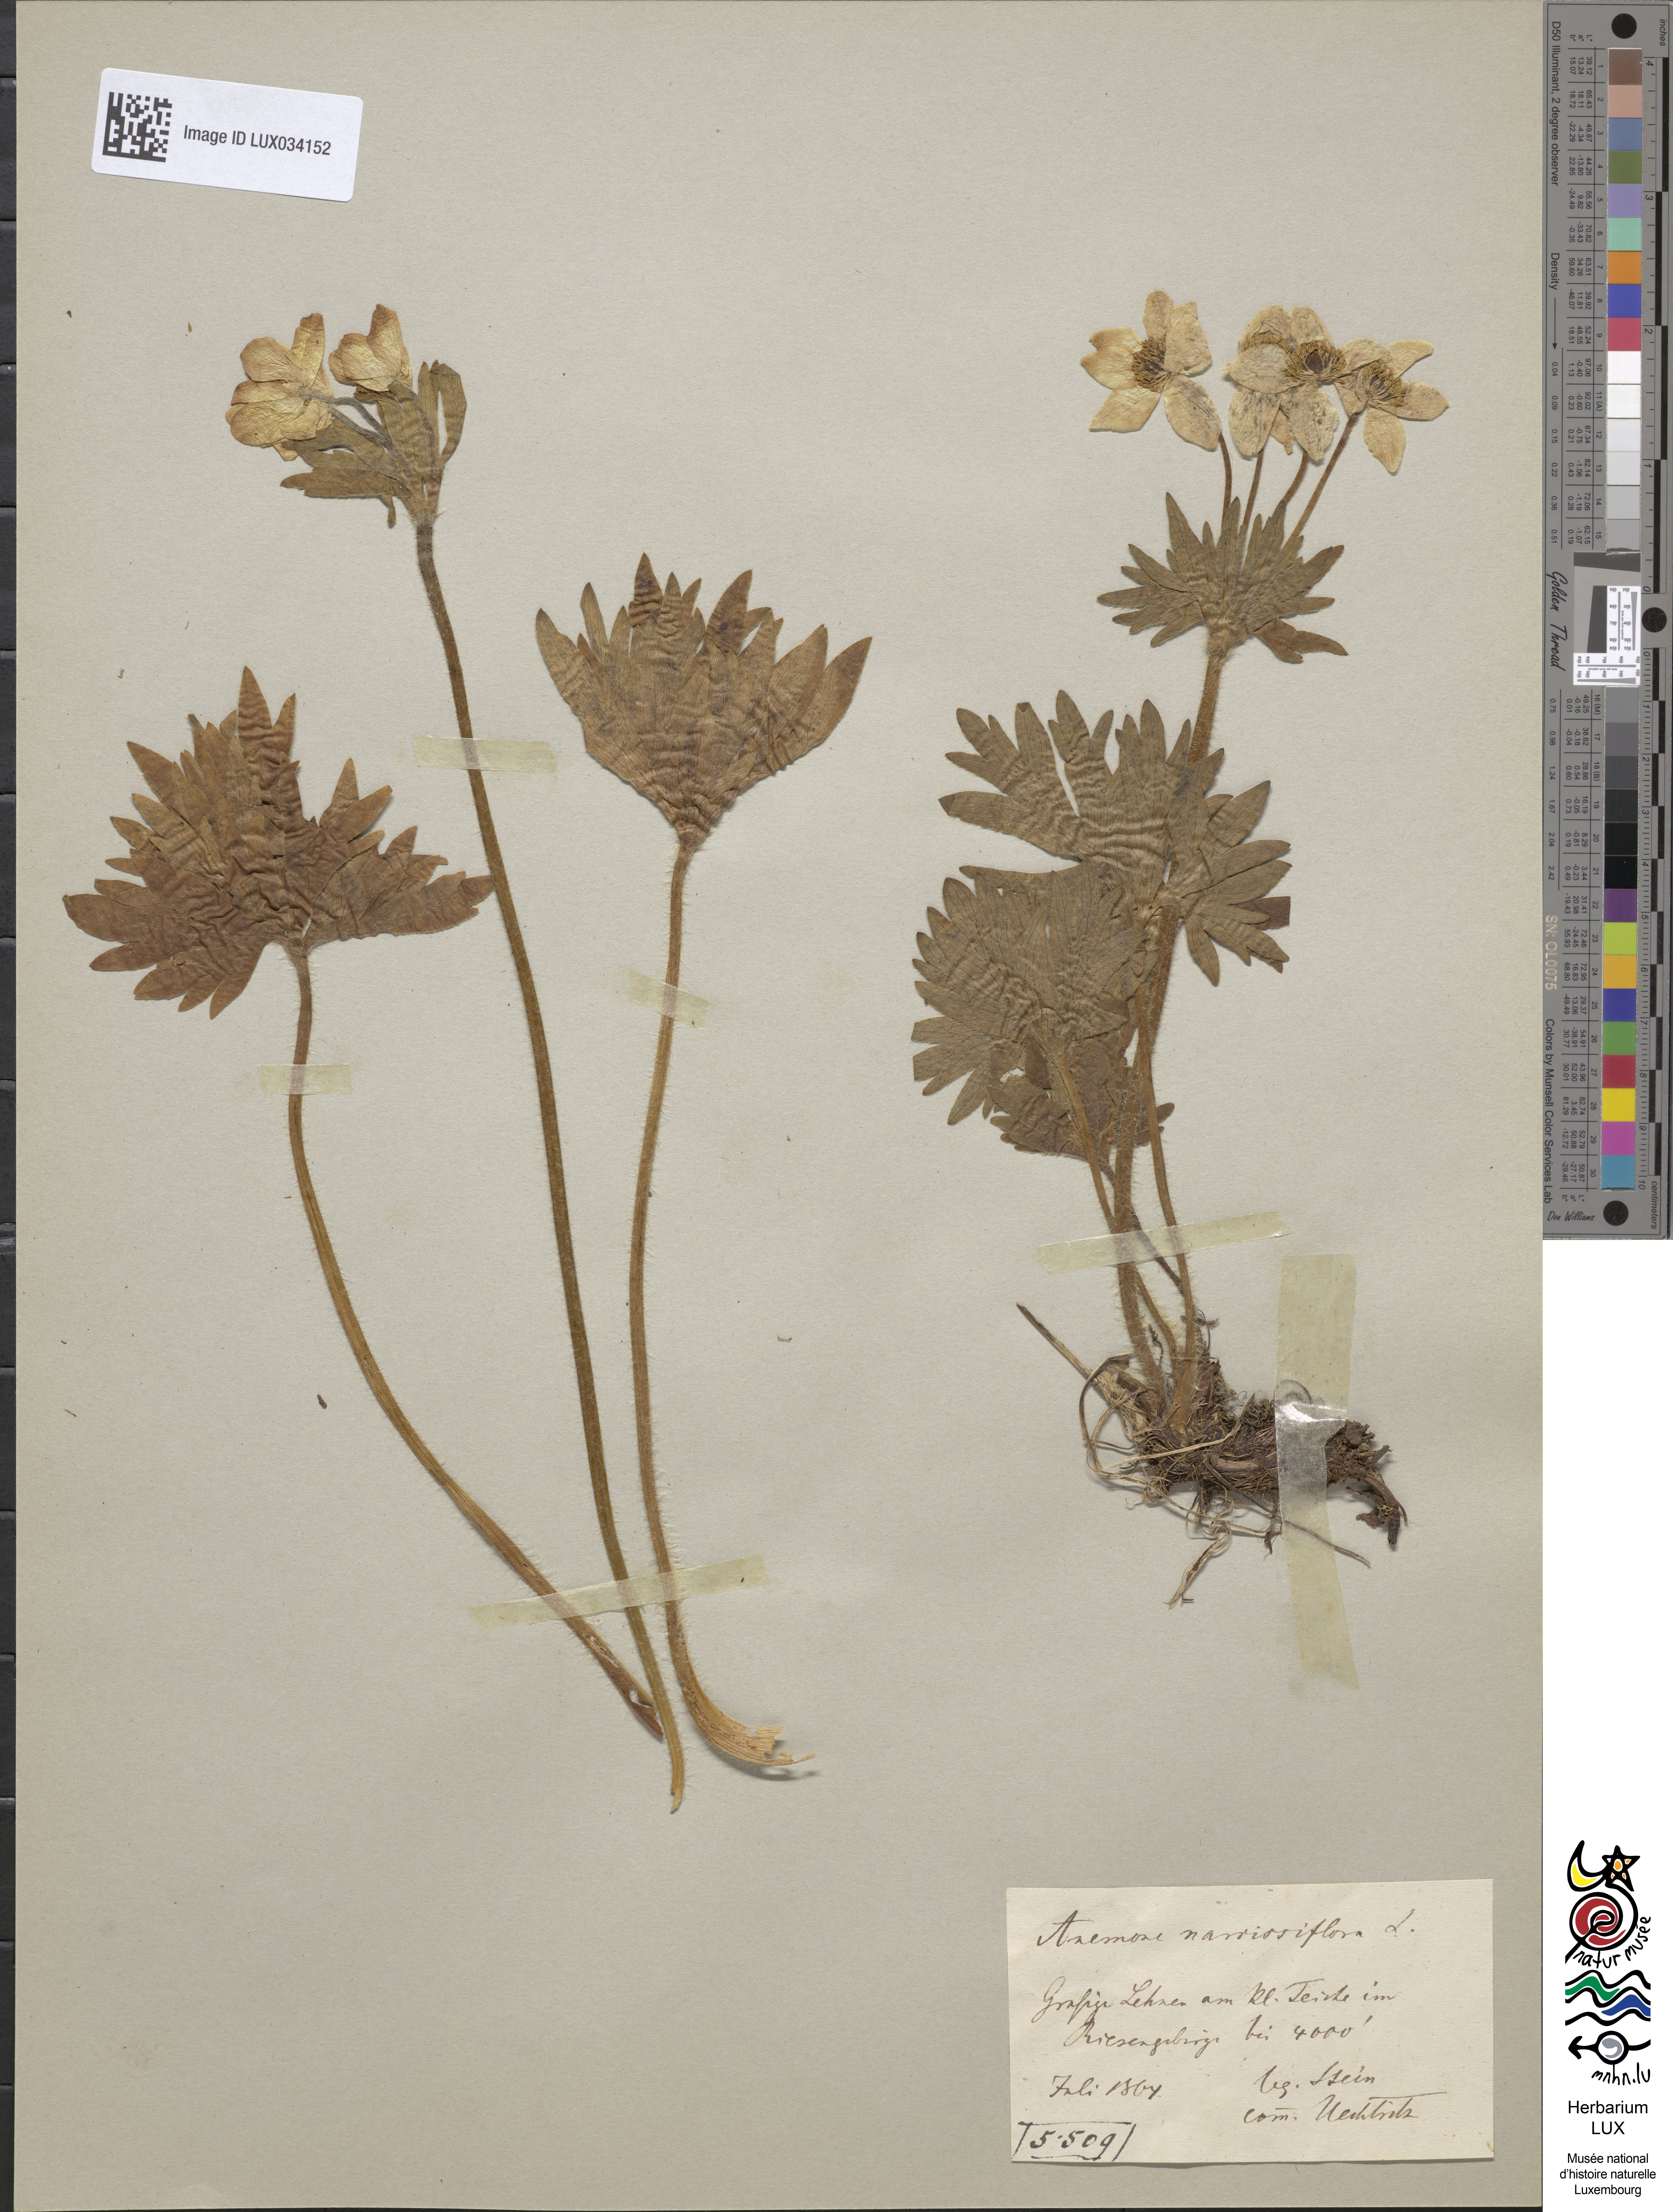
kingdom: Plantae
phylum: Tracheophyta
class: Magnoliopsida
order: Ranunculales
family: Ranunculaceae
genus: Anemone
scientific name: Anemone narcissifolia
